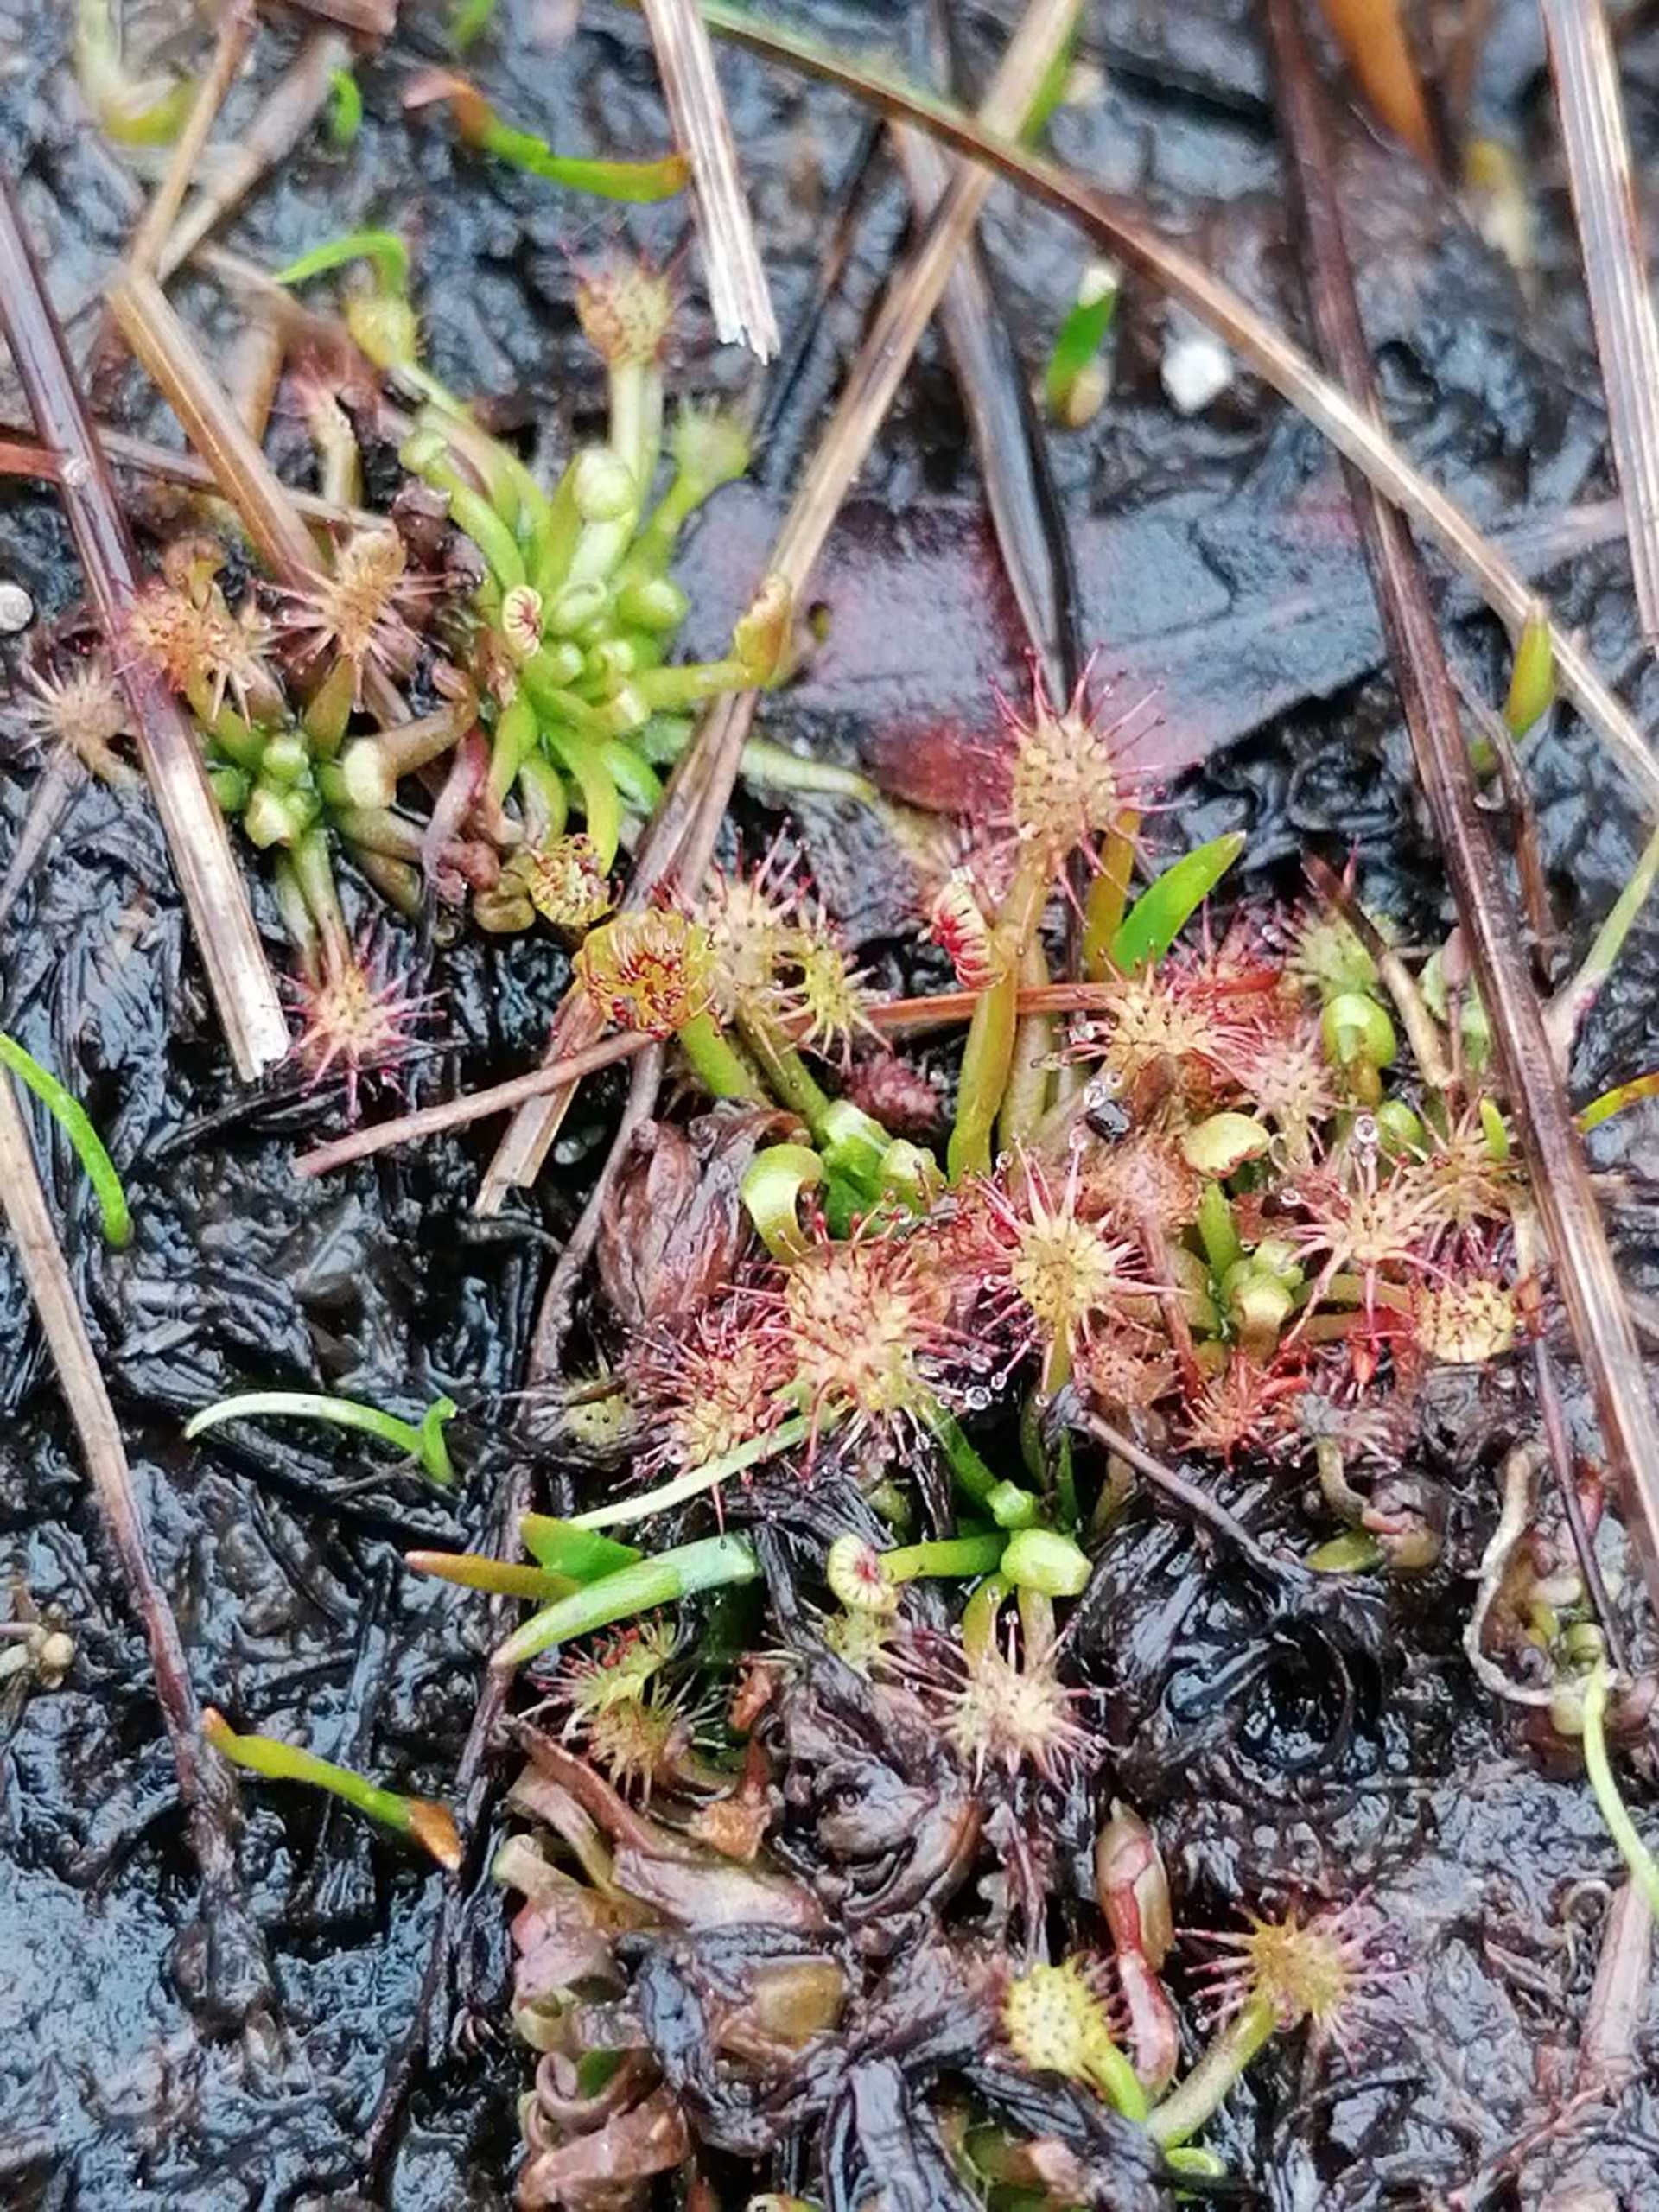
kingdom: Plantae
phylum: Tracheophyta
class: Magnoliopsida
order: Caryophyllales
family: Droseraceae
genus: Drosera
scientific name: Drosera rotundifolia
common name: Rundbladet soldug
